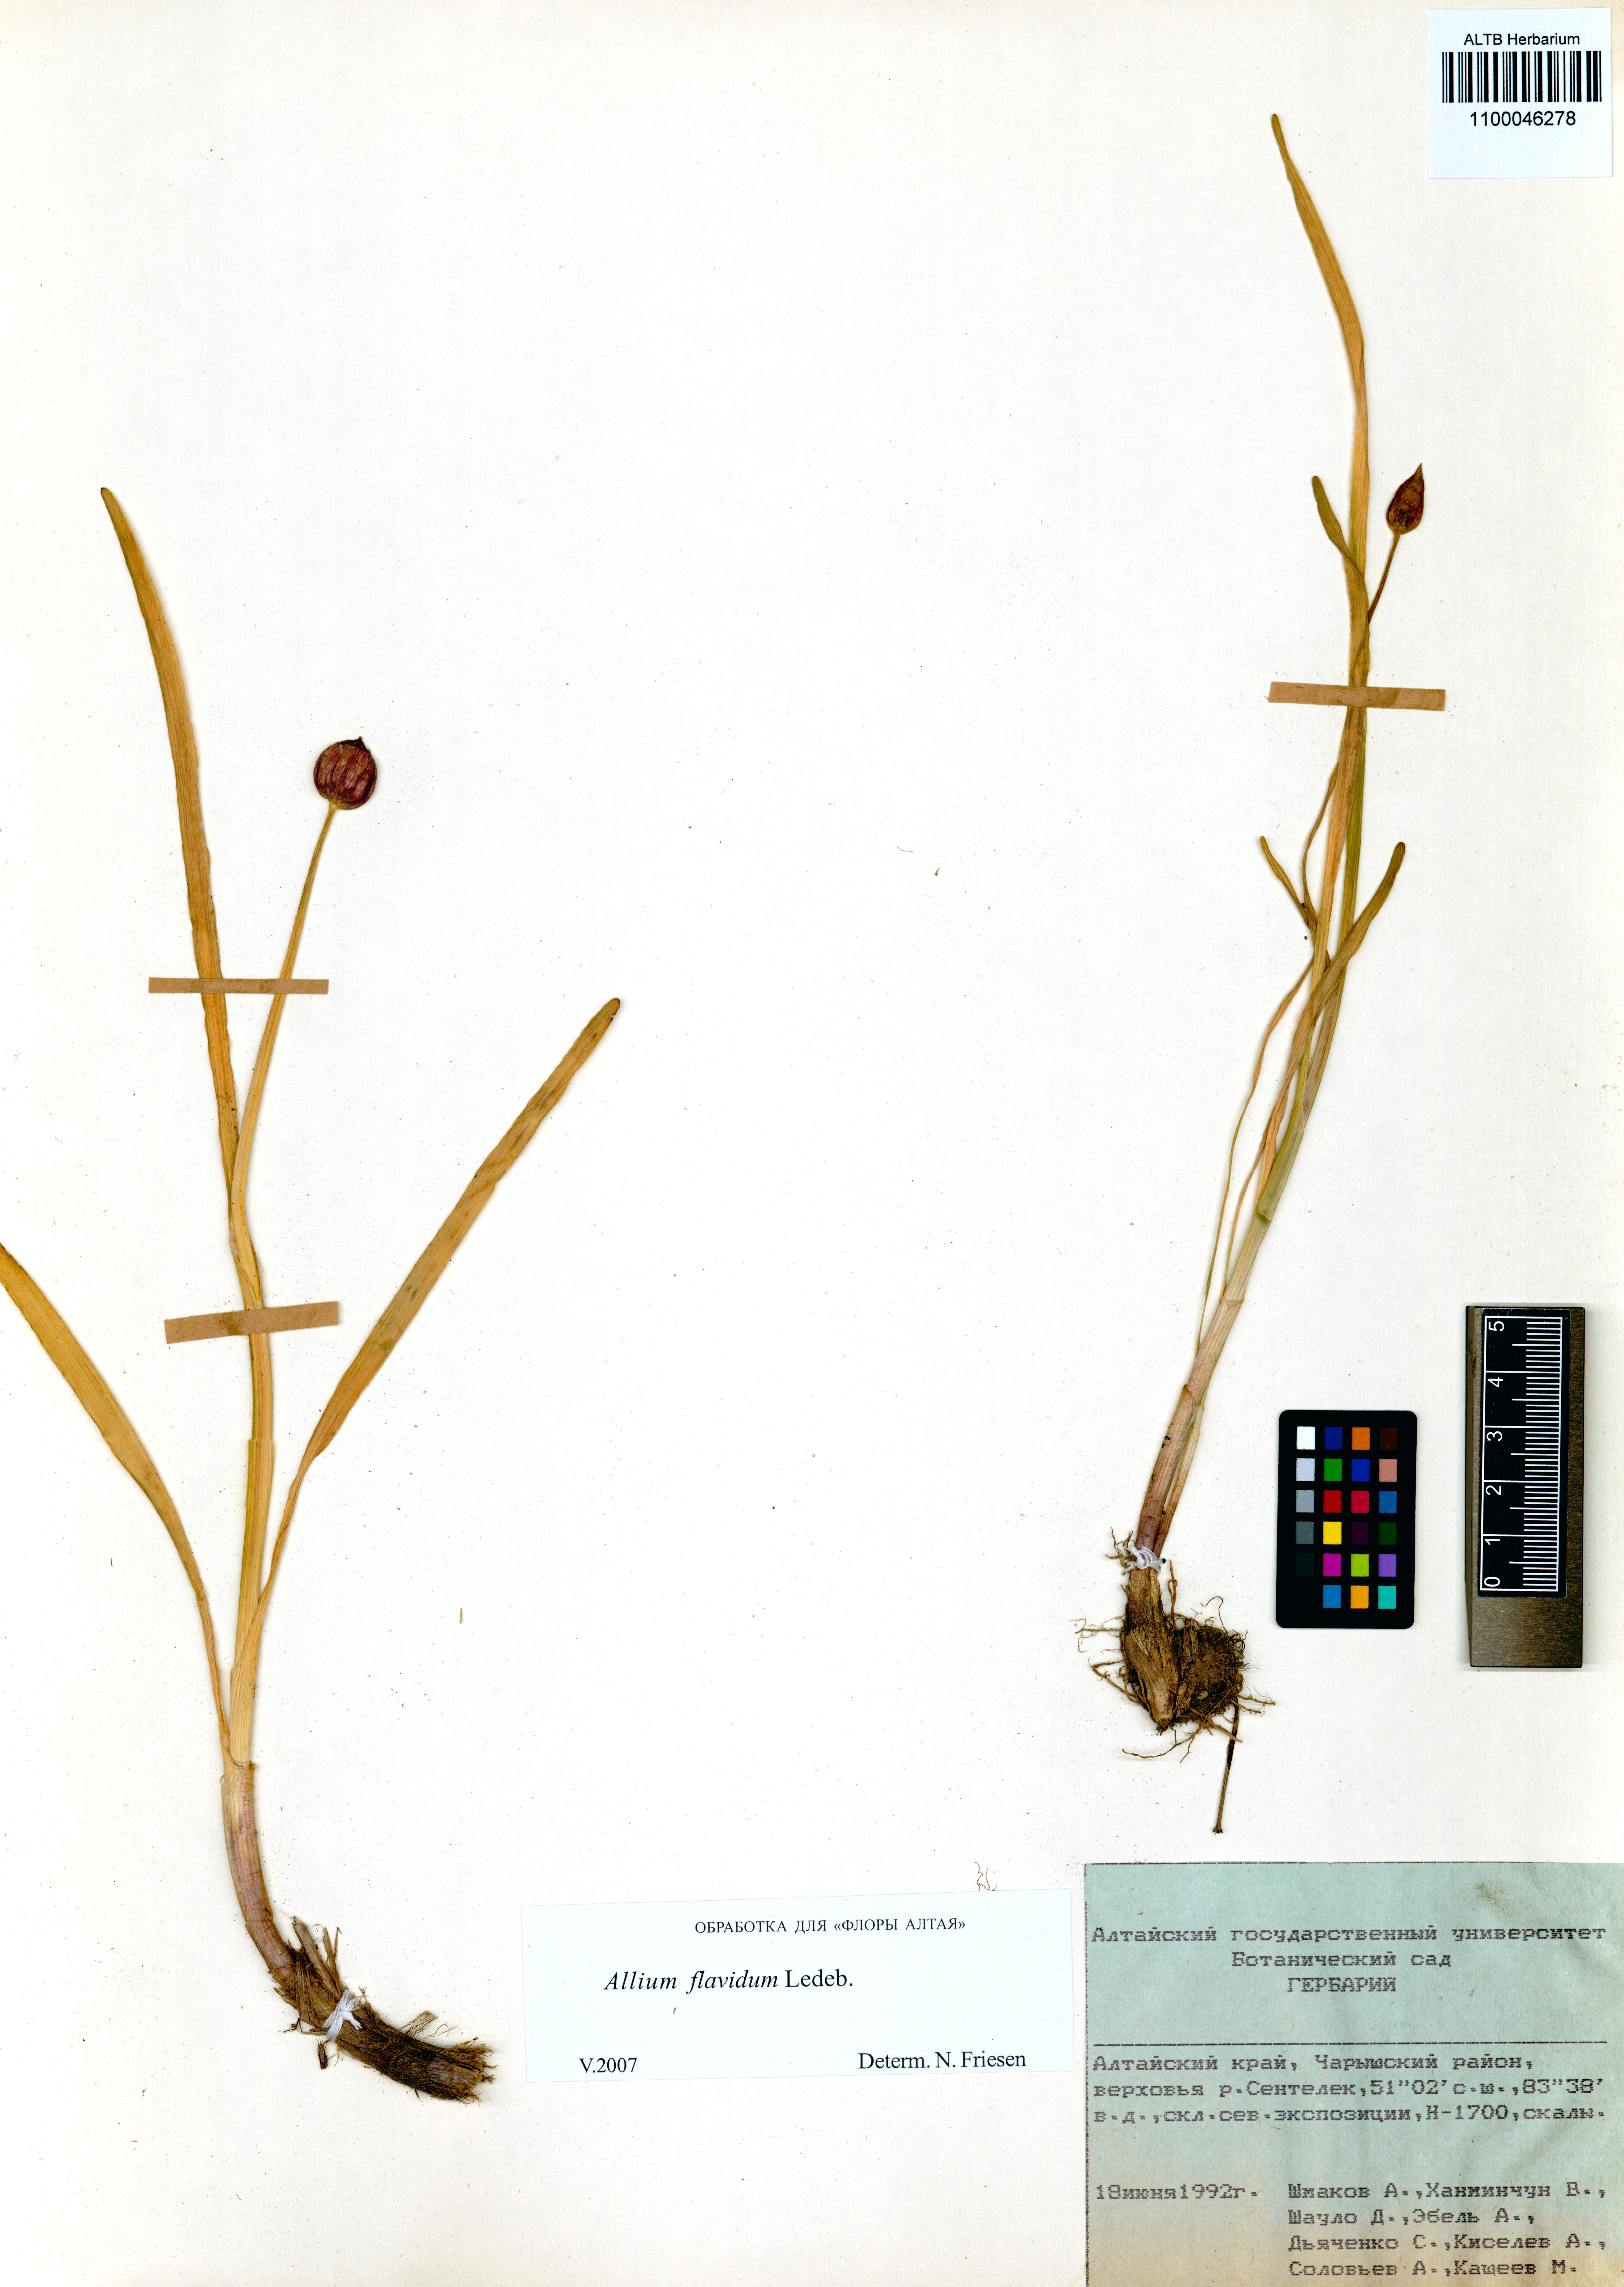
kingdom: Plantae
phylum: Tracheophyta
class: Liliopsida
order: Asparagales
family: Amaryllidaceae
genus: Allium
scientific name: Allium flavidum
